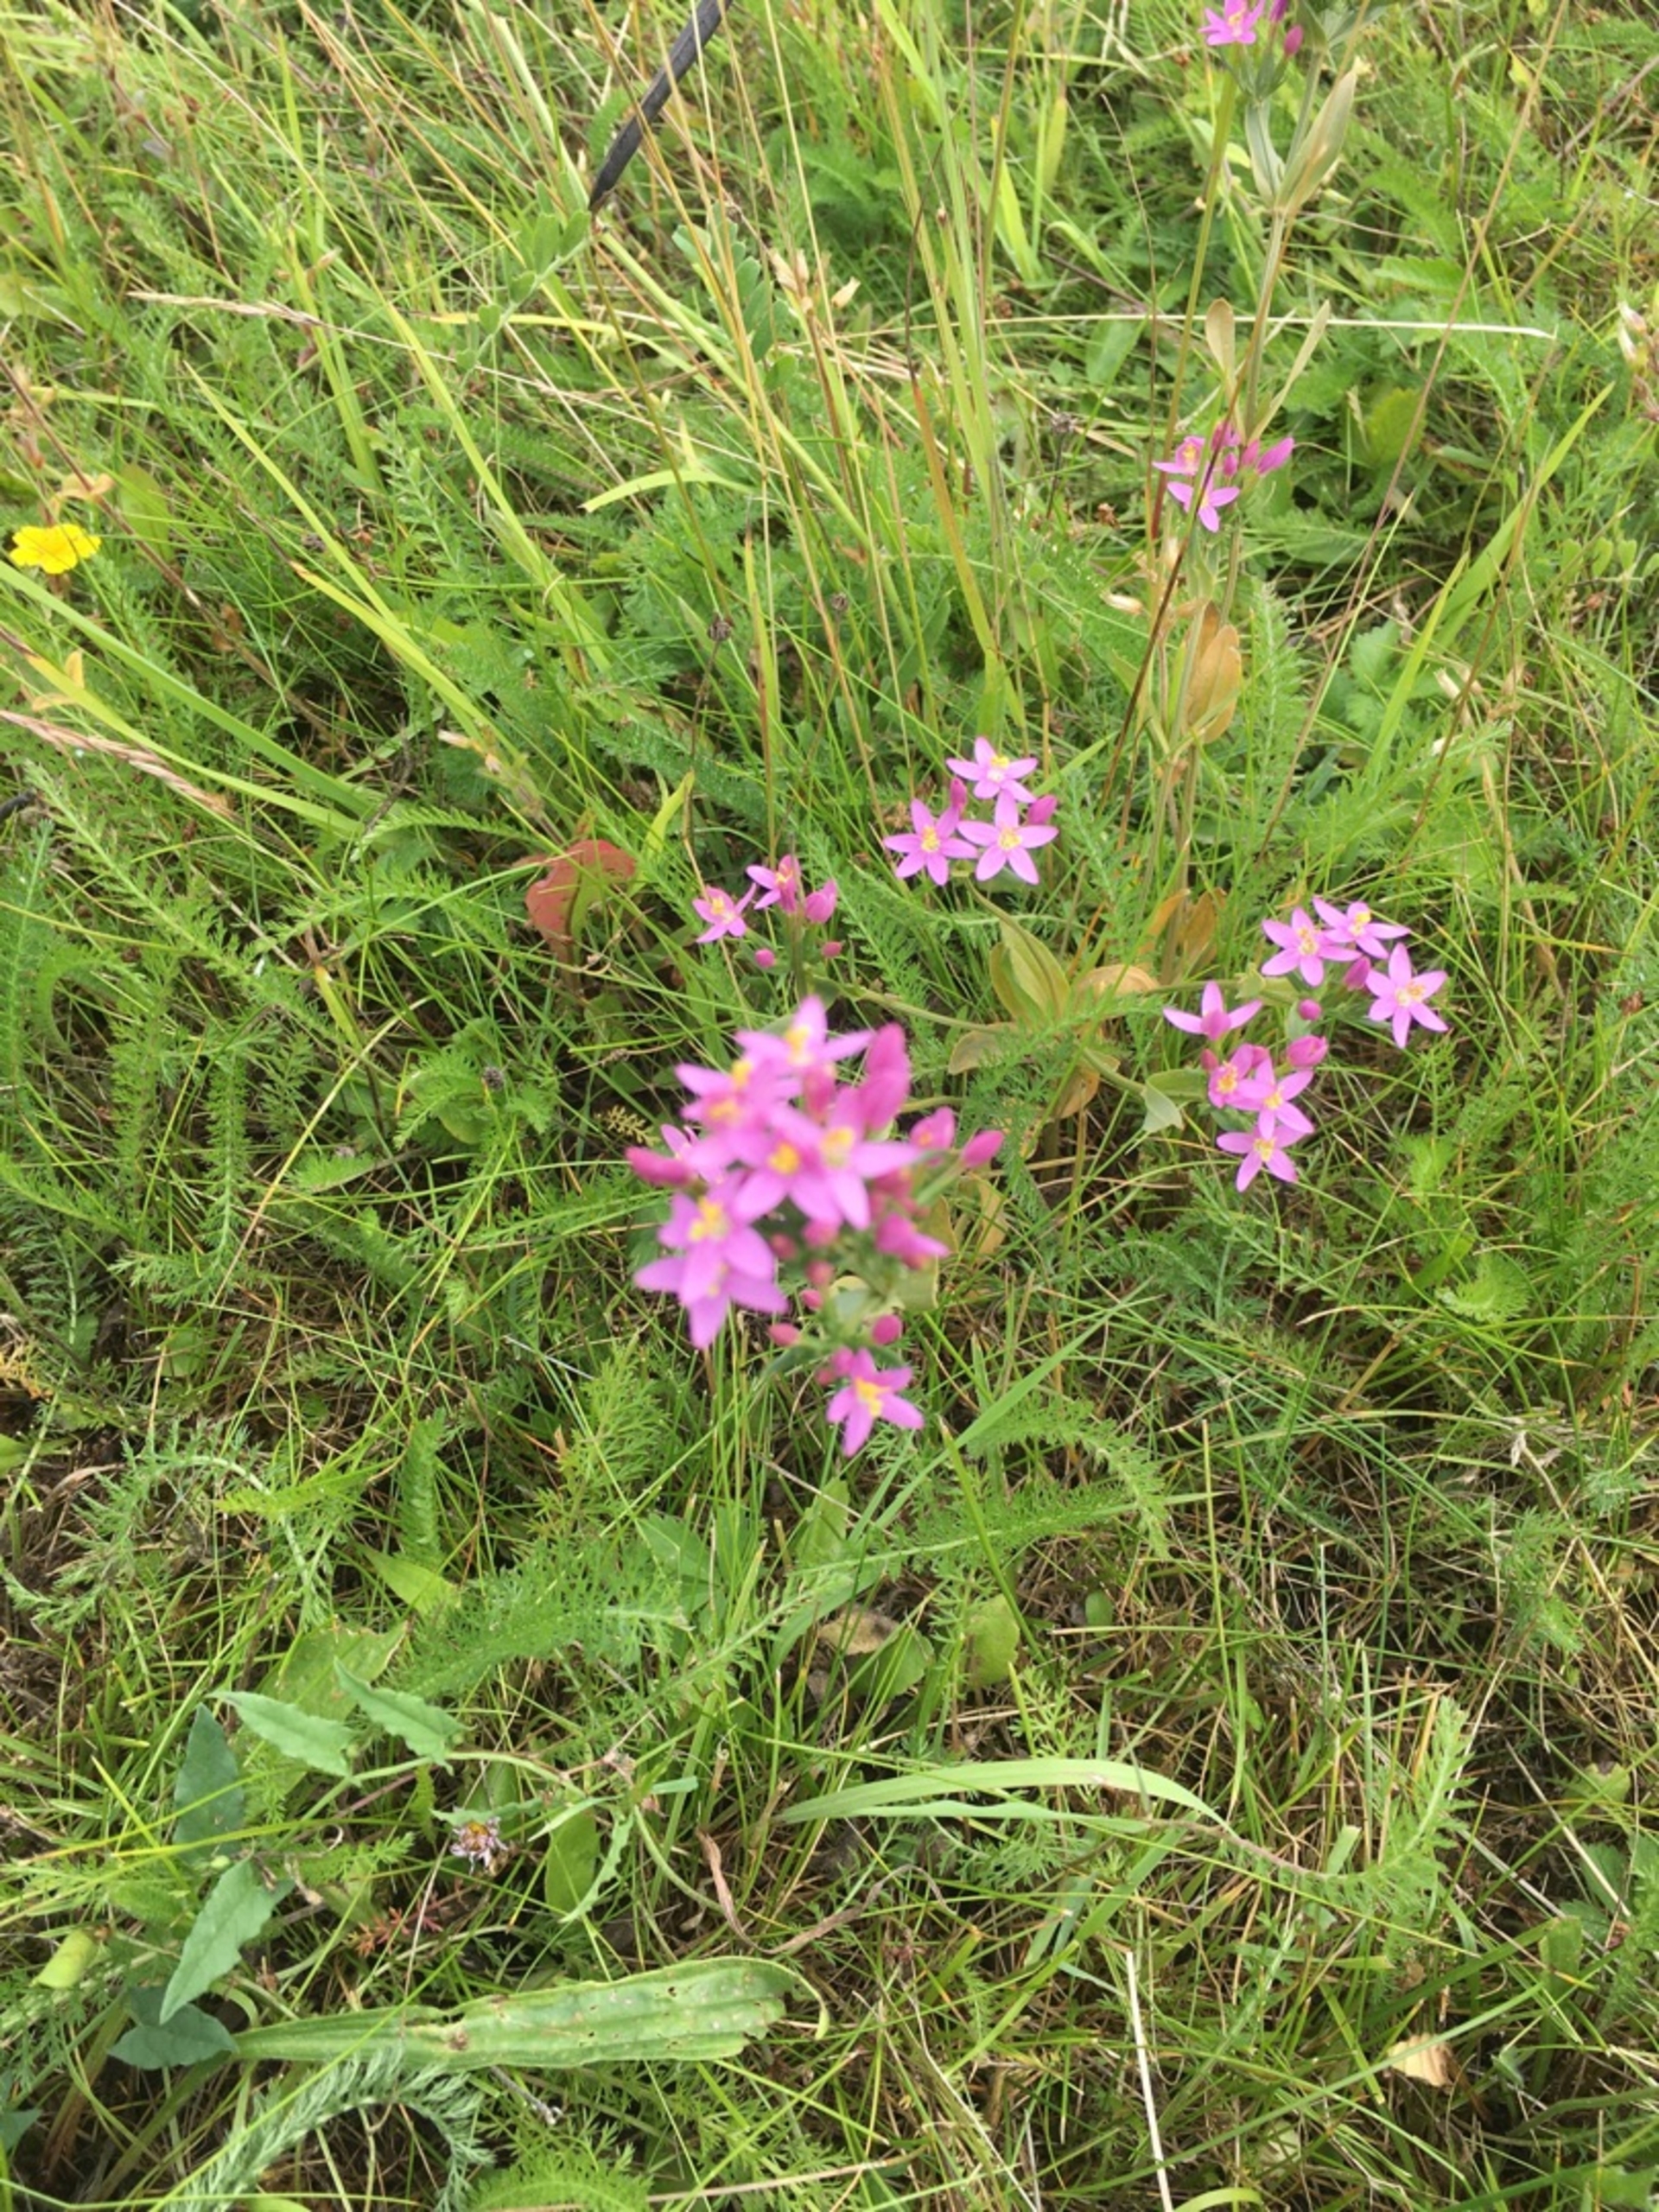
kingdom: Plantae
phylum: Tracheophyta
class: Magnoliopsida
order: Gentianales
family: Gentianaceae
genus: Centaurium
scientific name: Centaurium erythraea
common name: Mark-tusindgylden
